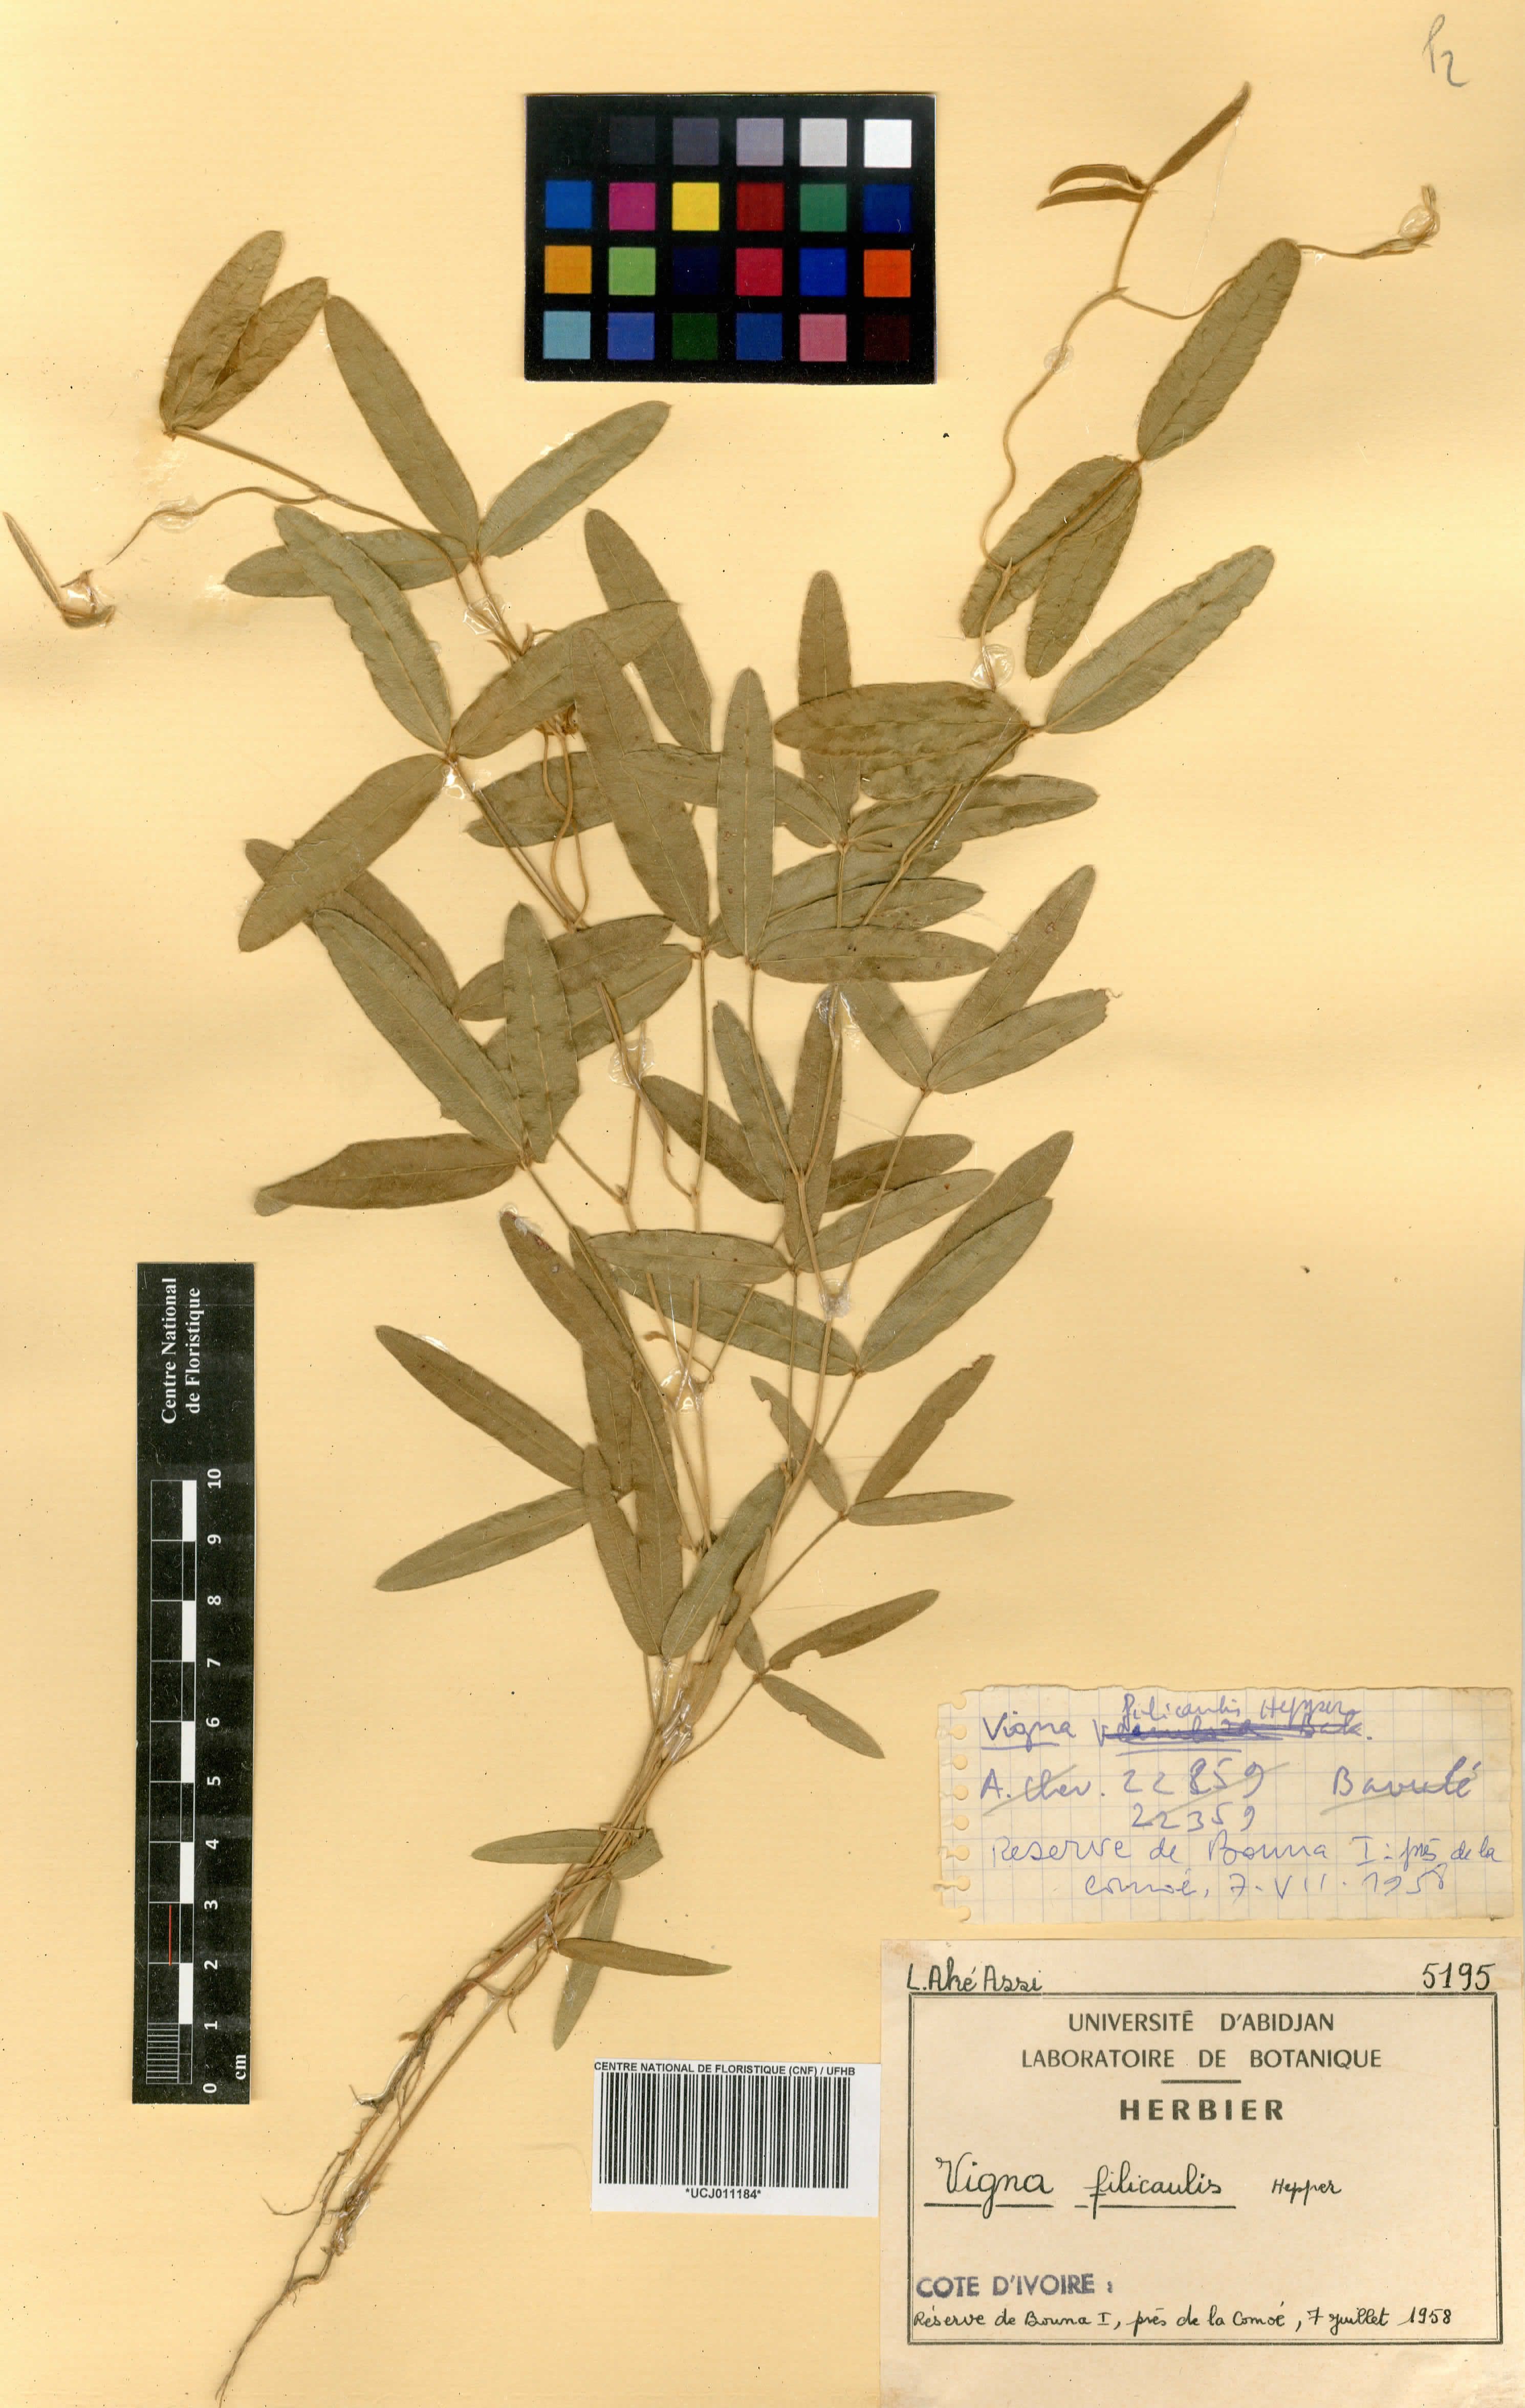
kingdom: Plantae
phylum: Tracheophyta
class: Magnoliopsida
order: Fabales
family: Fabaceae
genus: Vigna
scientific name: Vigna filicaulis
